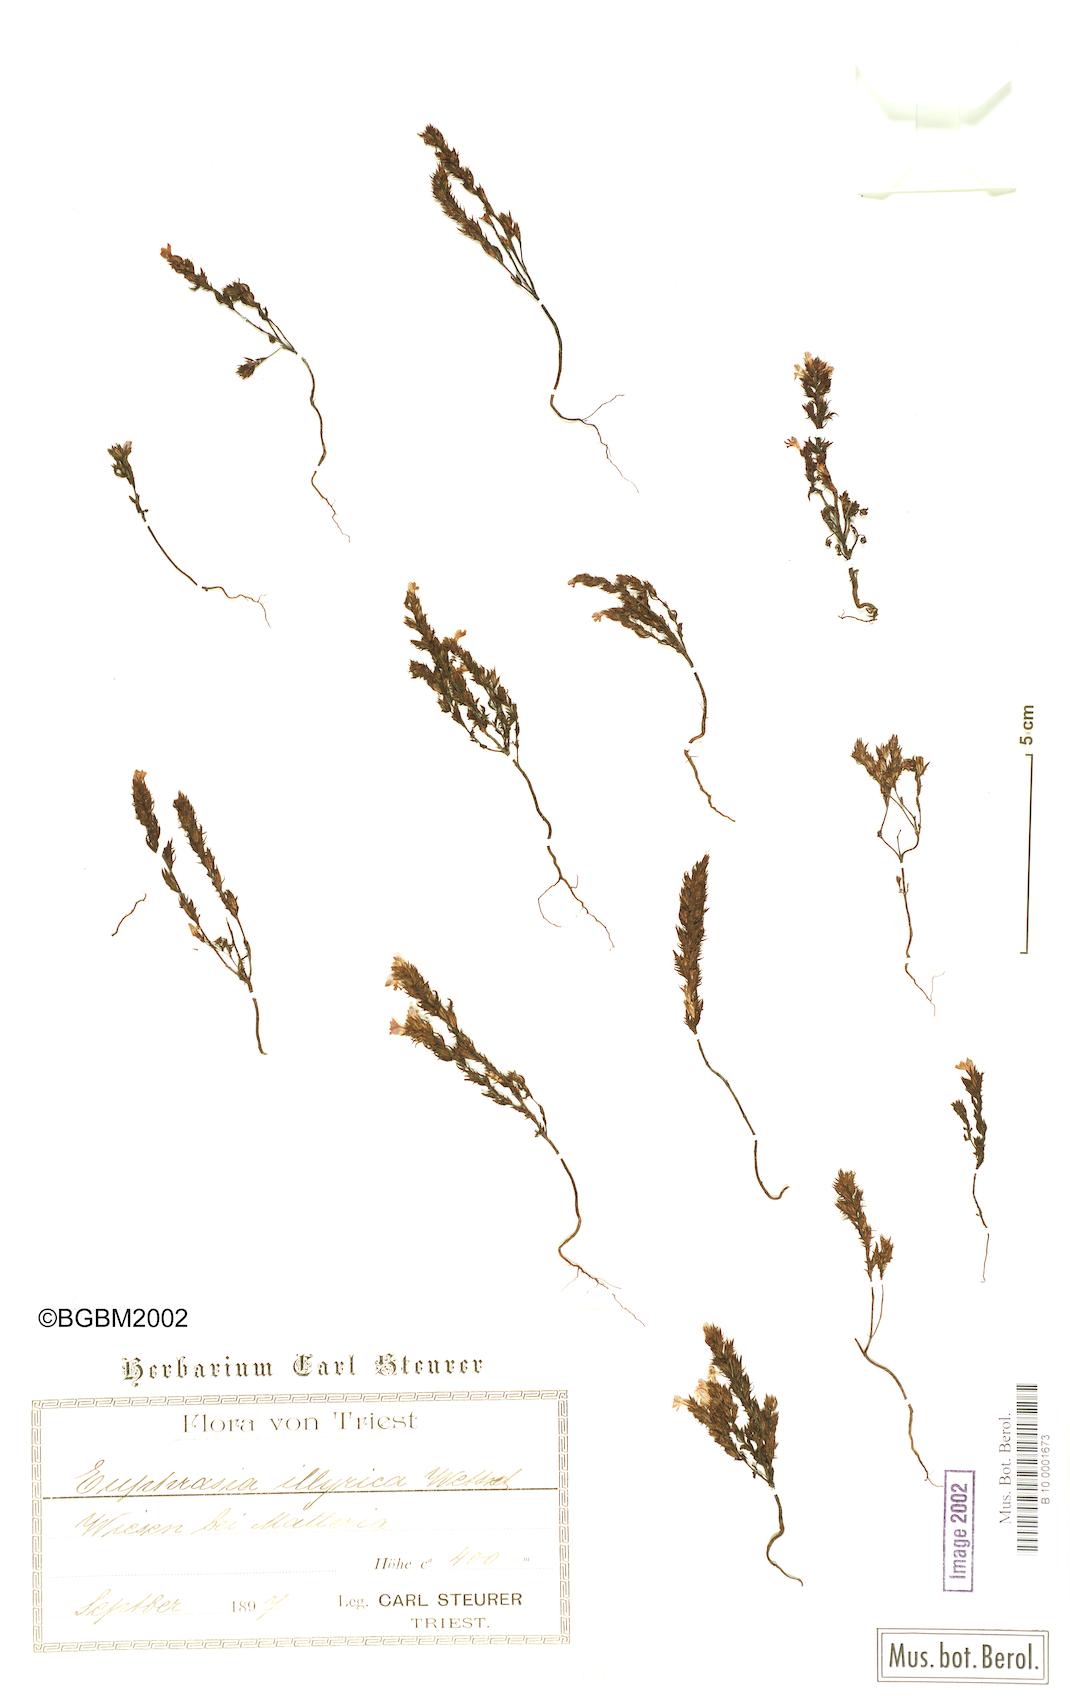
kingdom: Plantae
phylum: Tracheophyta
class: Magnoliopsida
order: Lamiales
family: Orobanchaceae
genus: Euphrasia
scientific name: Euphrasia illyrica
